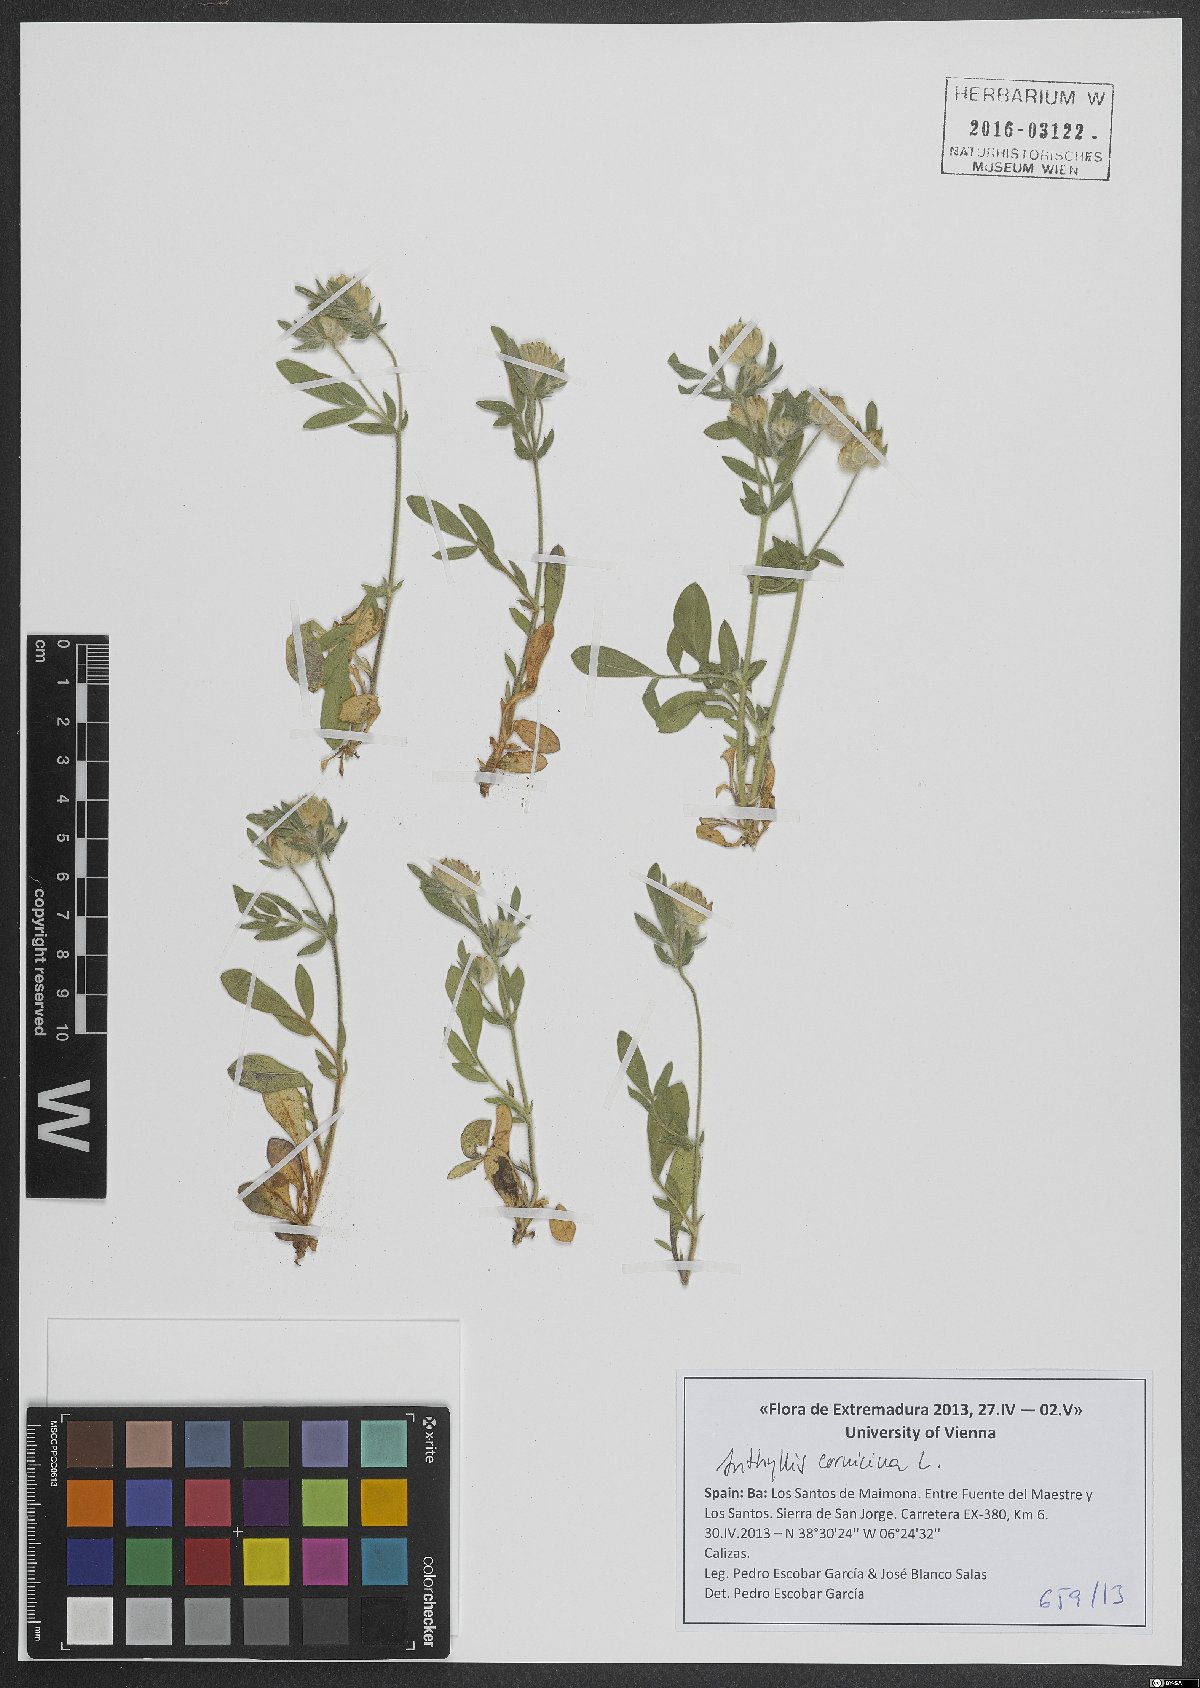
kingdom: Plantae
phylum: Tracheophyta
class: Magnoliopsida
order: Fabales
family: Fabaceae
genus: Anthyllis
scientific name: Anthyllis cornicina
